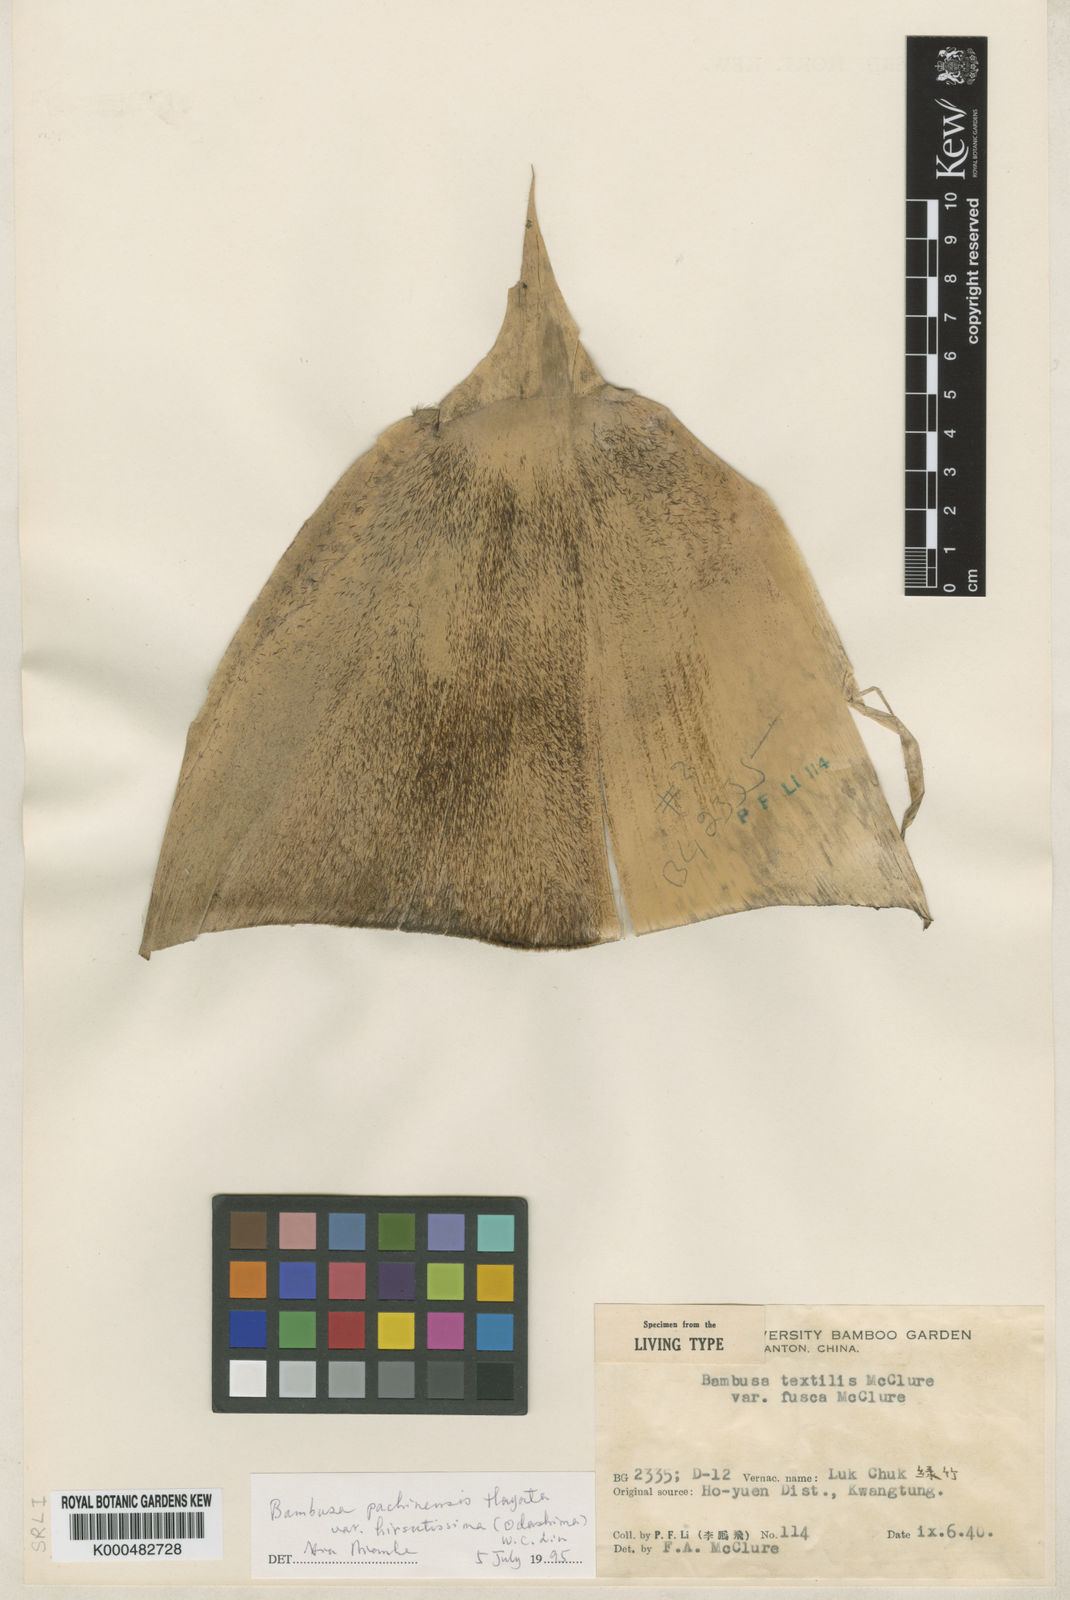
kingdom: Plantae
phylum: Tracheophyta
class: Liliopsida
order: Poales
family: Poaceae
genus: Bambusa
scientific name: Bambusa pachinensis
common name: Pachi bamboo
